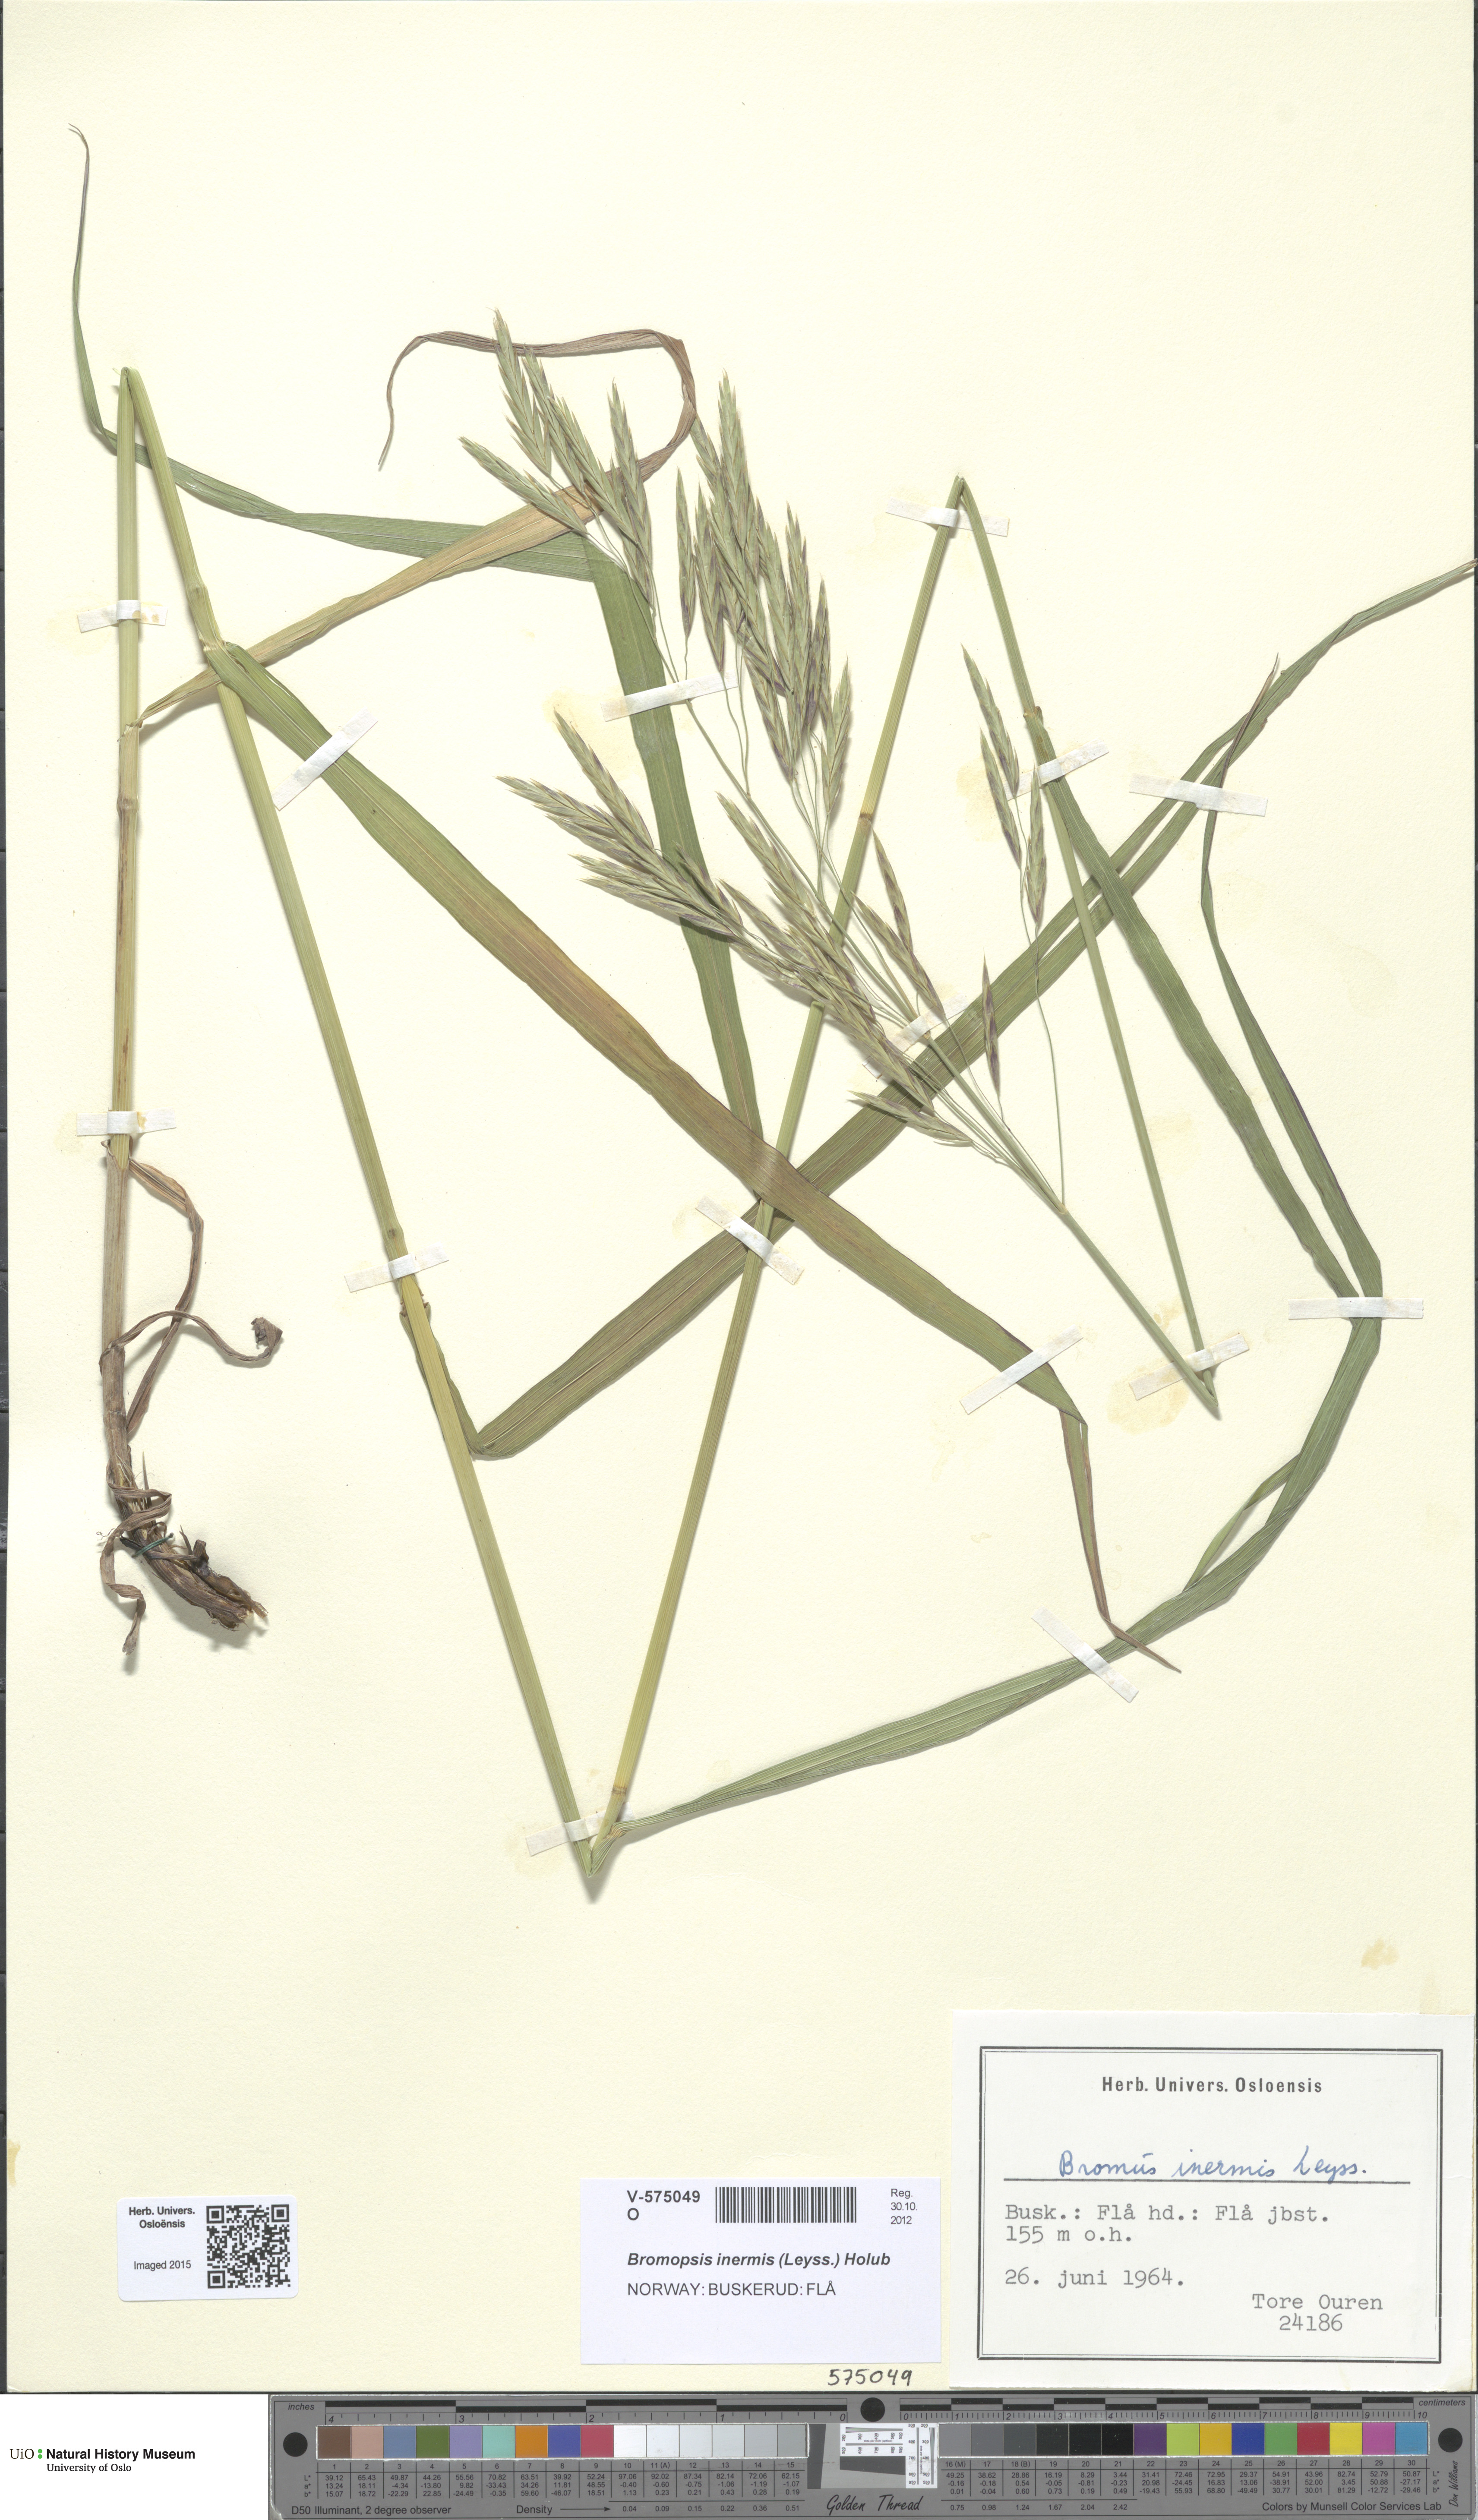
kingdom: Plantae
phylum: Tracheophyta
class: Liliopsida
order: Poales
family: Poaceae
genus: Bromus
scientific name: Bromus inermis
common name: Smooth brome
